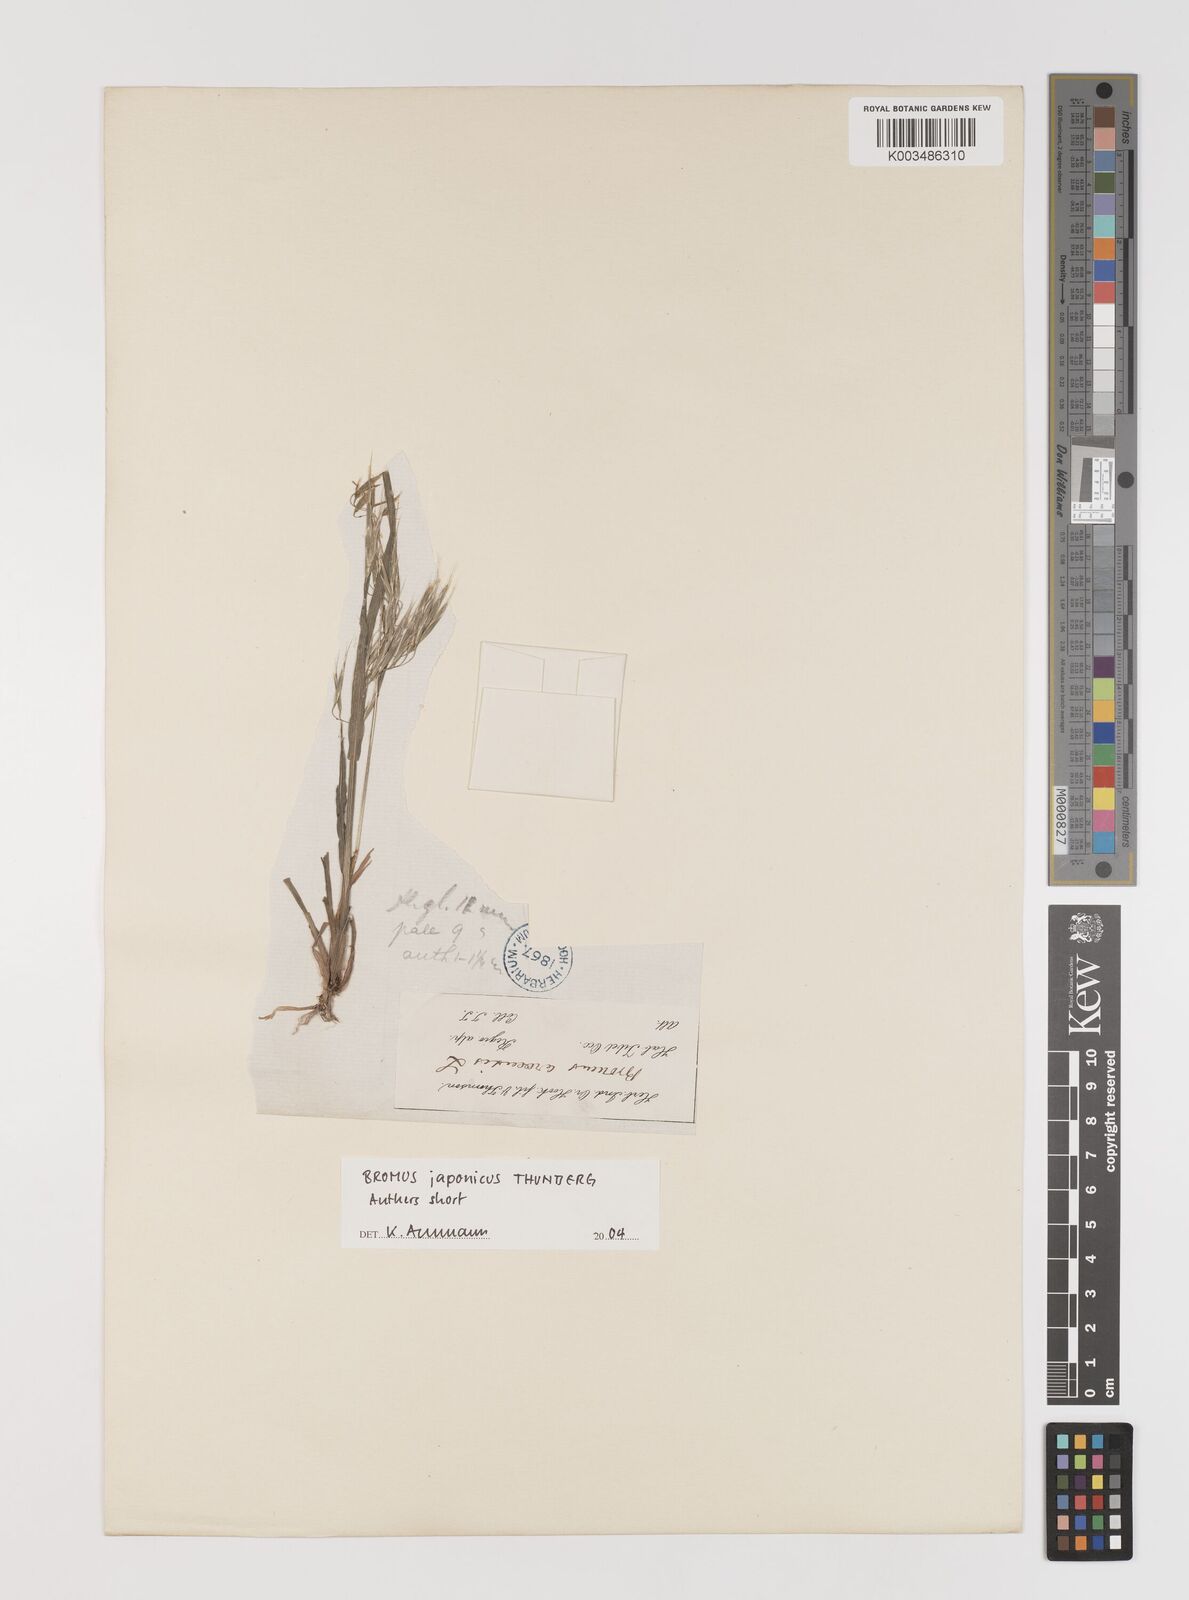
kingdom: Plantae
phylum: Tracheophyta
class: Liliopsida
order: Poales
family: Poaceae
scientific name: Poaceae
